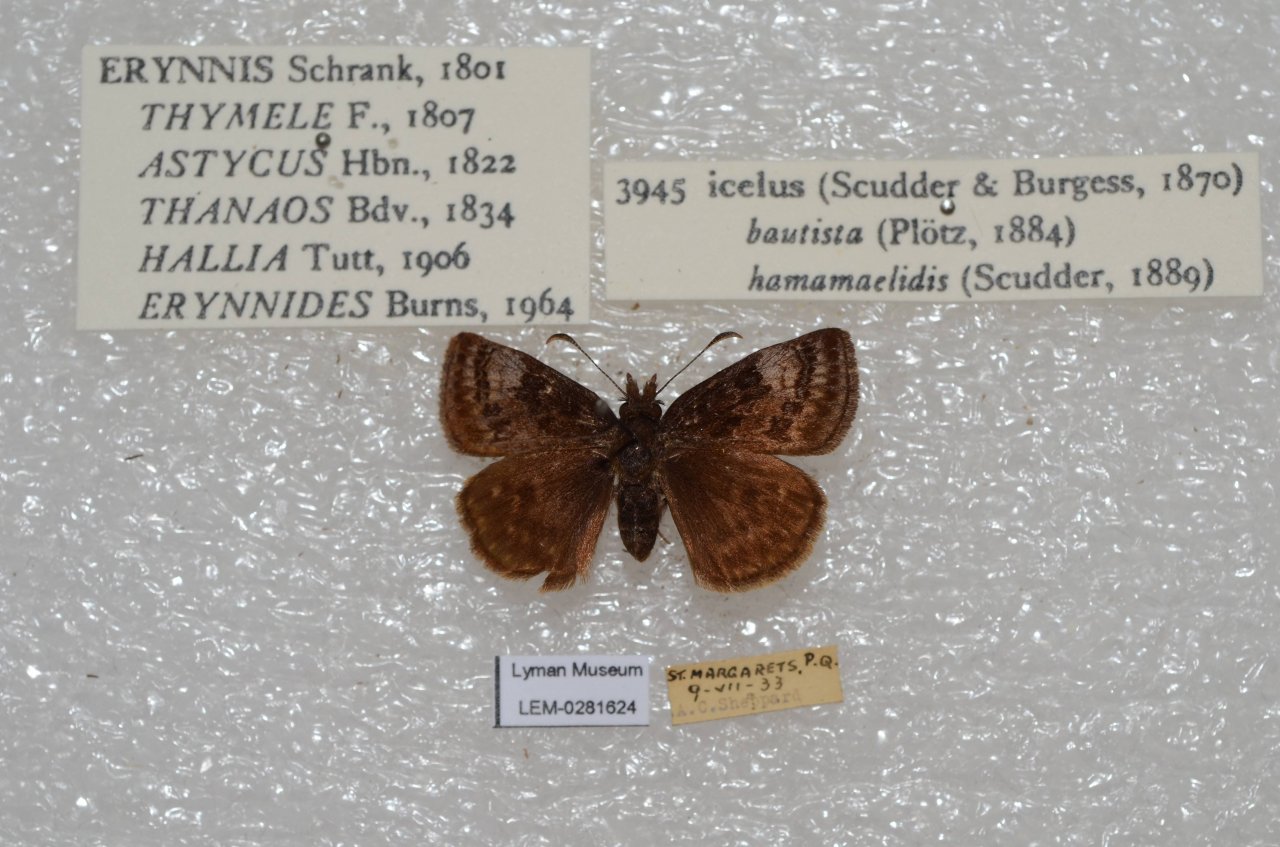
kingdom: Animalia
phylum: Arthropoda
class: Insecta
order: Lepidoptera
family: Hesperiidae
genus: Erynnis
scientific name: Erynnis icelus
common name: Dreamy Duskywing
